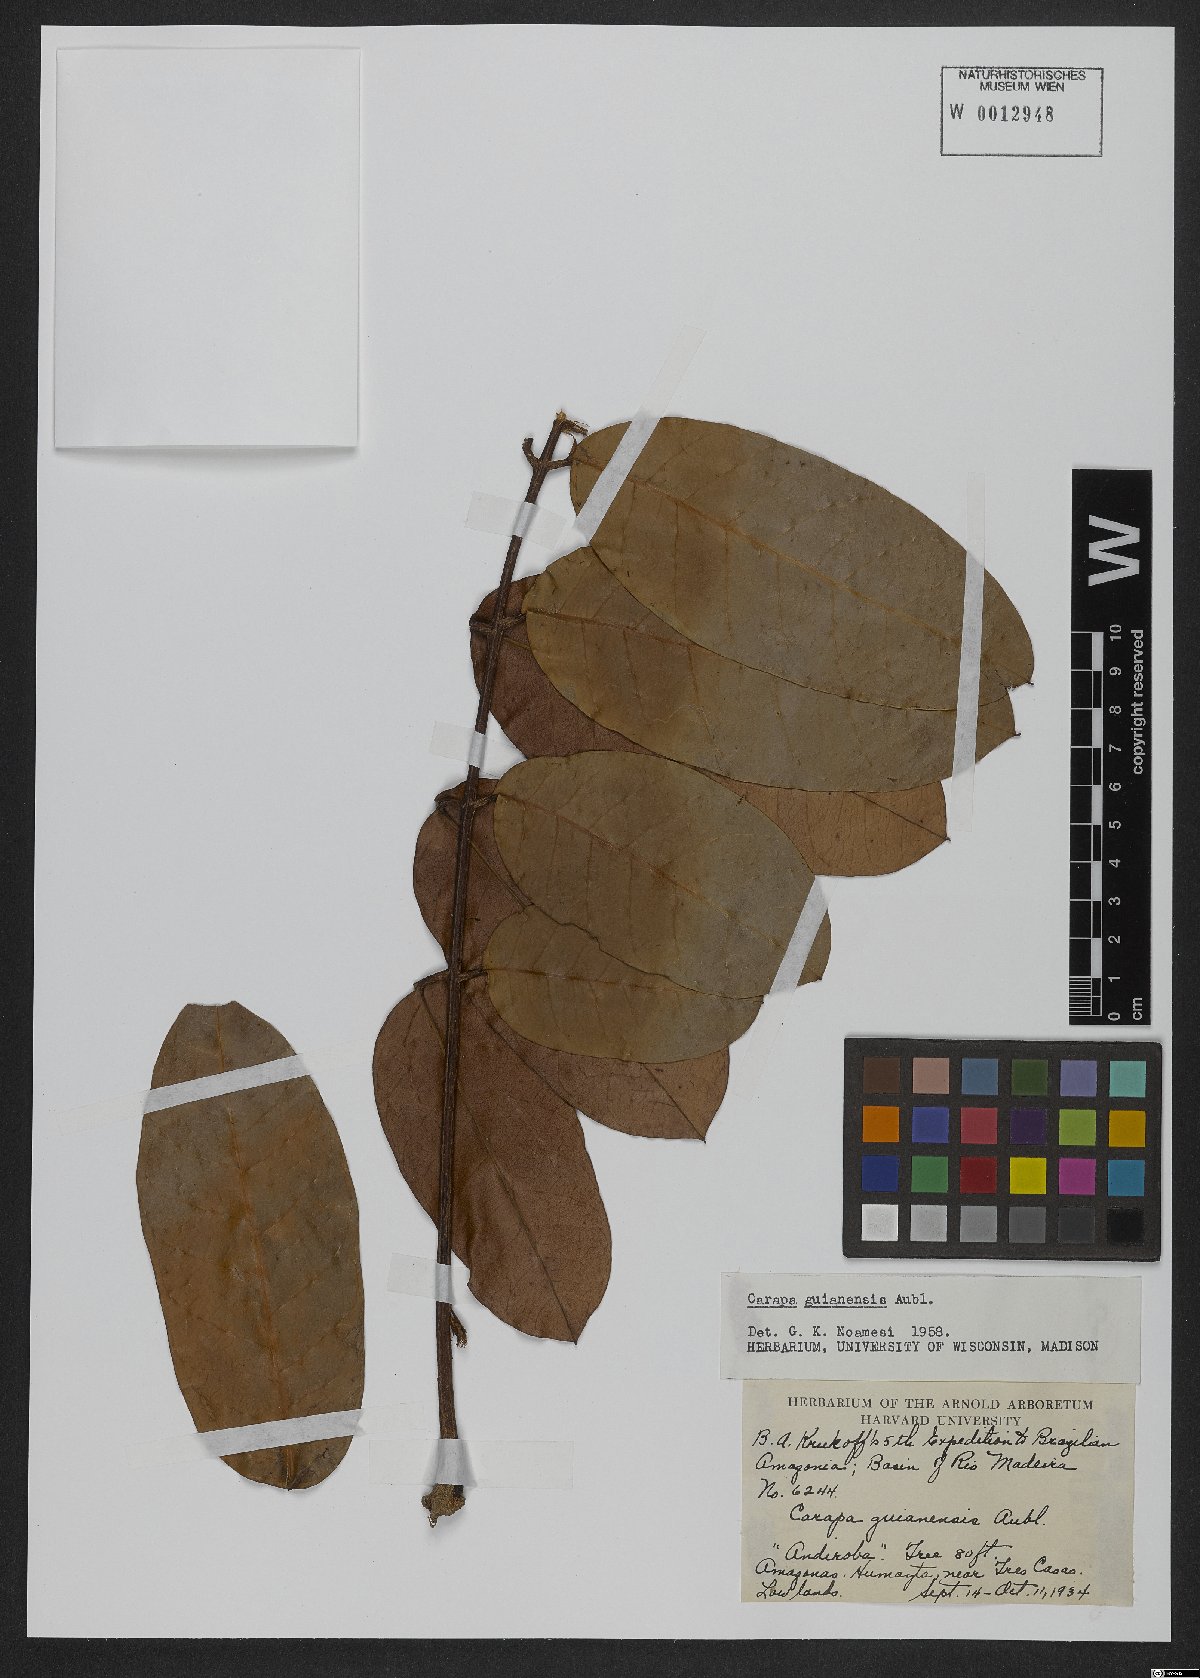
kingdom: Plantae
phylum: Tracheophyta
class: Magnoliopsida
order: Sapindales
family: Meliaceae
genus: Carapa
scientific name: Carapa guianensis
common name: Crabwood
